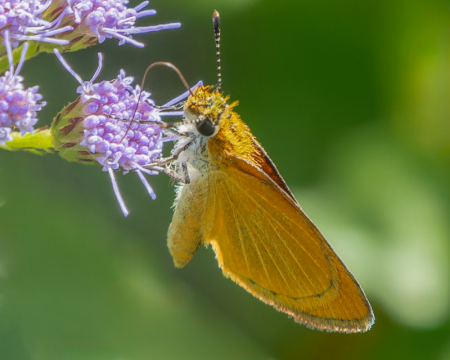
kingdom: Animalia
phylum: Arthropoda
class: Insecta
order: Lepidoptera
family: Hesperiidae
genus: Ancyloxypha
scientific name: Ancyloxypha numitor
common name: Least Skipper
